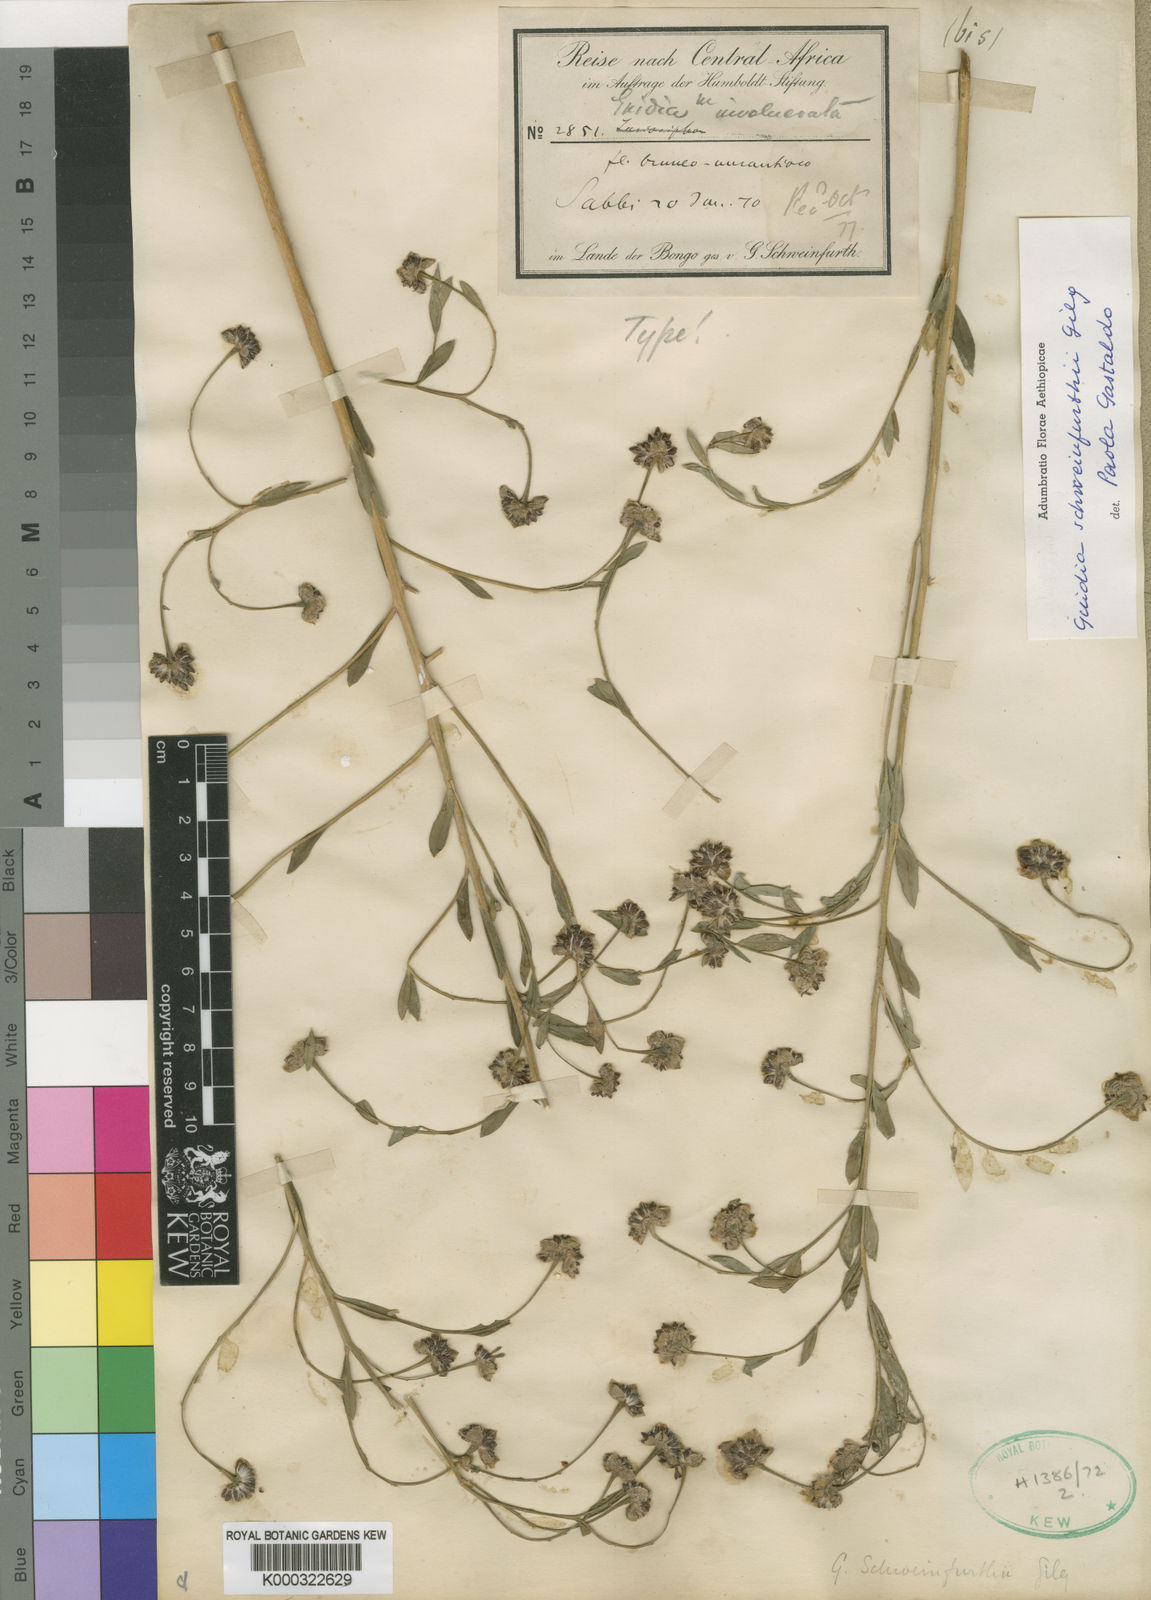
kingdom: Plantae
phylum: Tracheophyta
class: Magnoliopsida
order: Malvales
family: Thymelaeaceae
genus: Gnidia
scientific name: Gnidia involucrata
